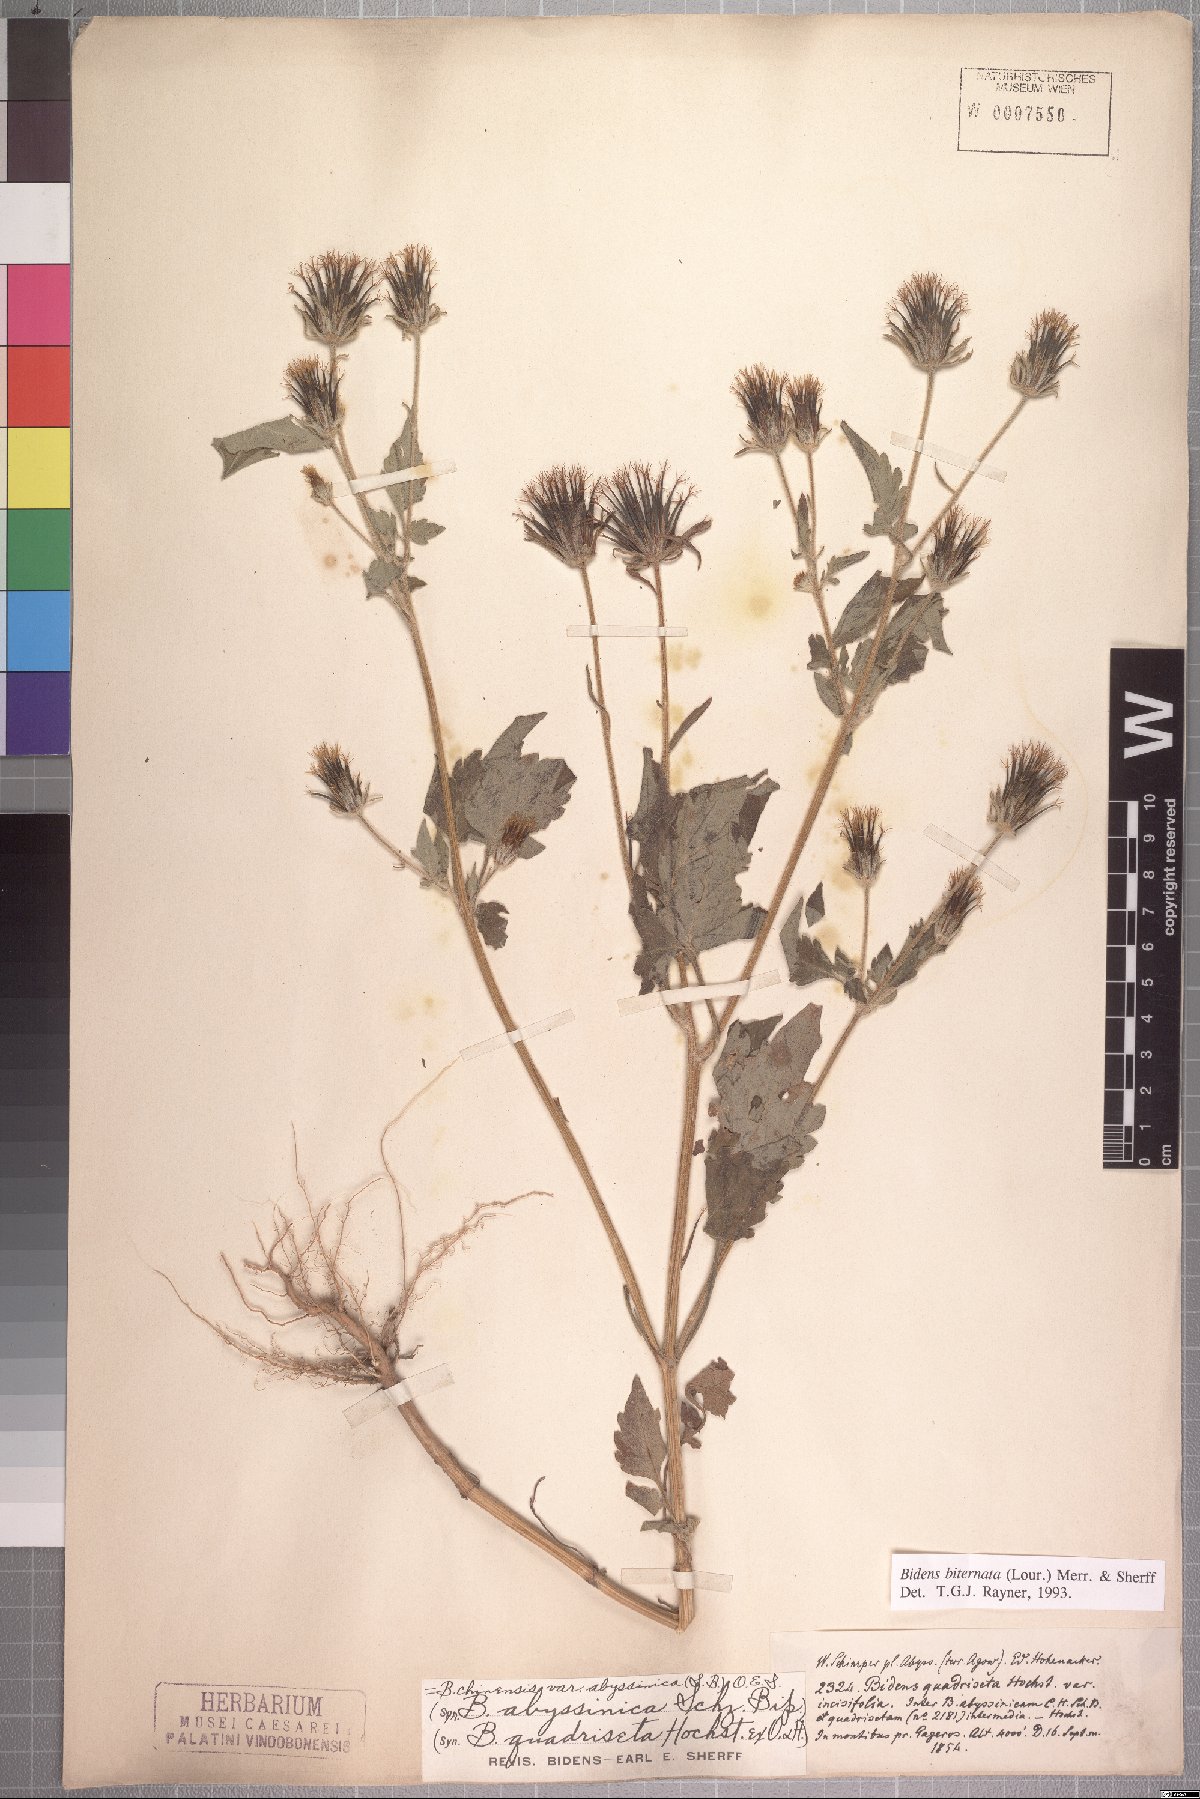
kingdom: Plantae
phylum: Tracheophyta
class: Magnoliopsida
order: Asterales
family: Asteraceae
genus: Bidens
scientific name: Bidens biternata
